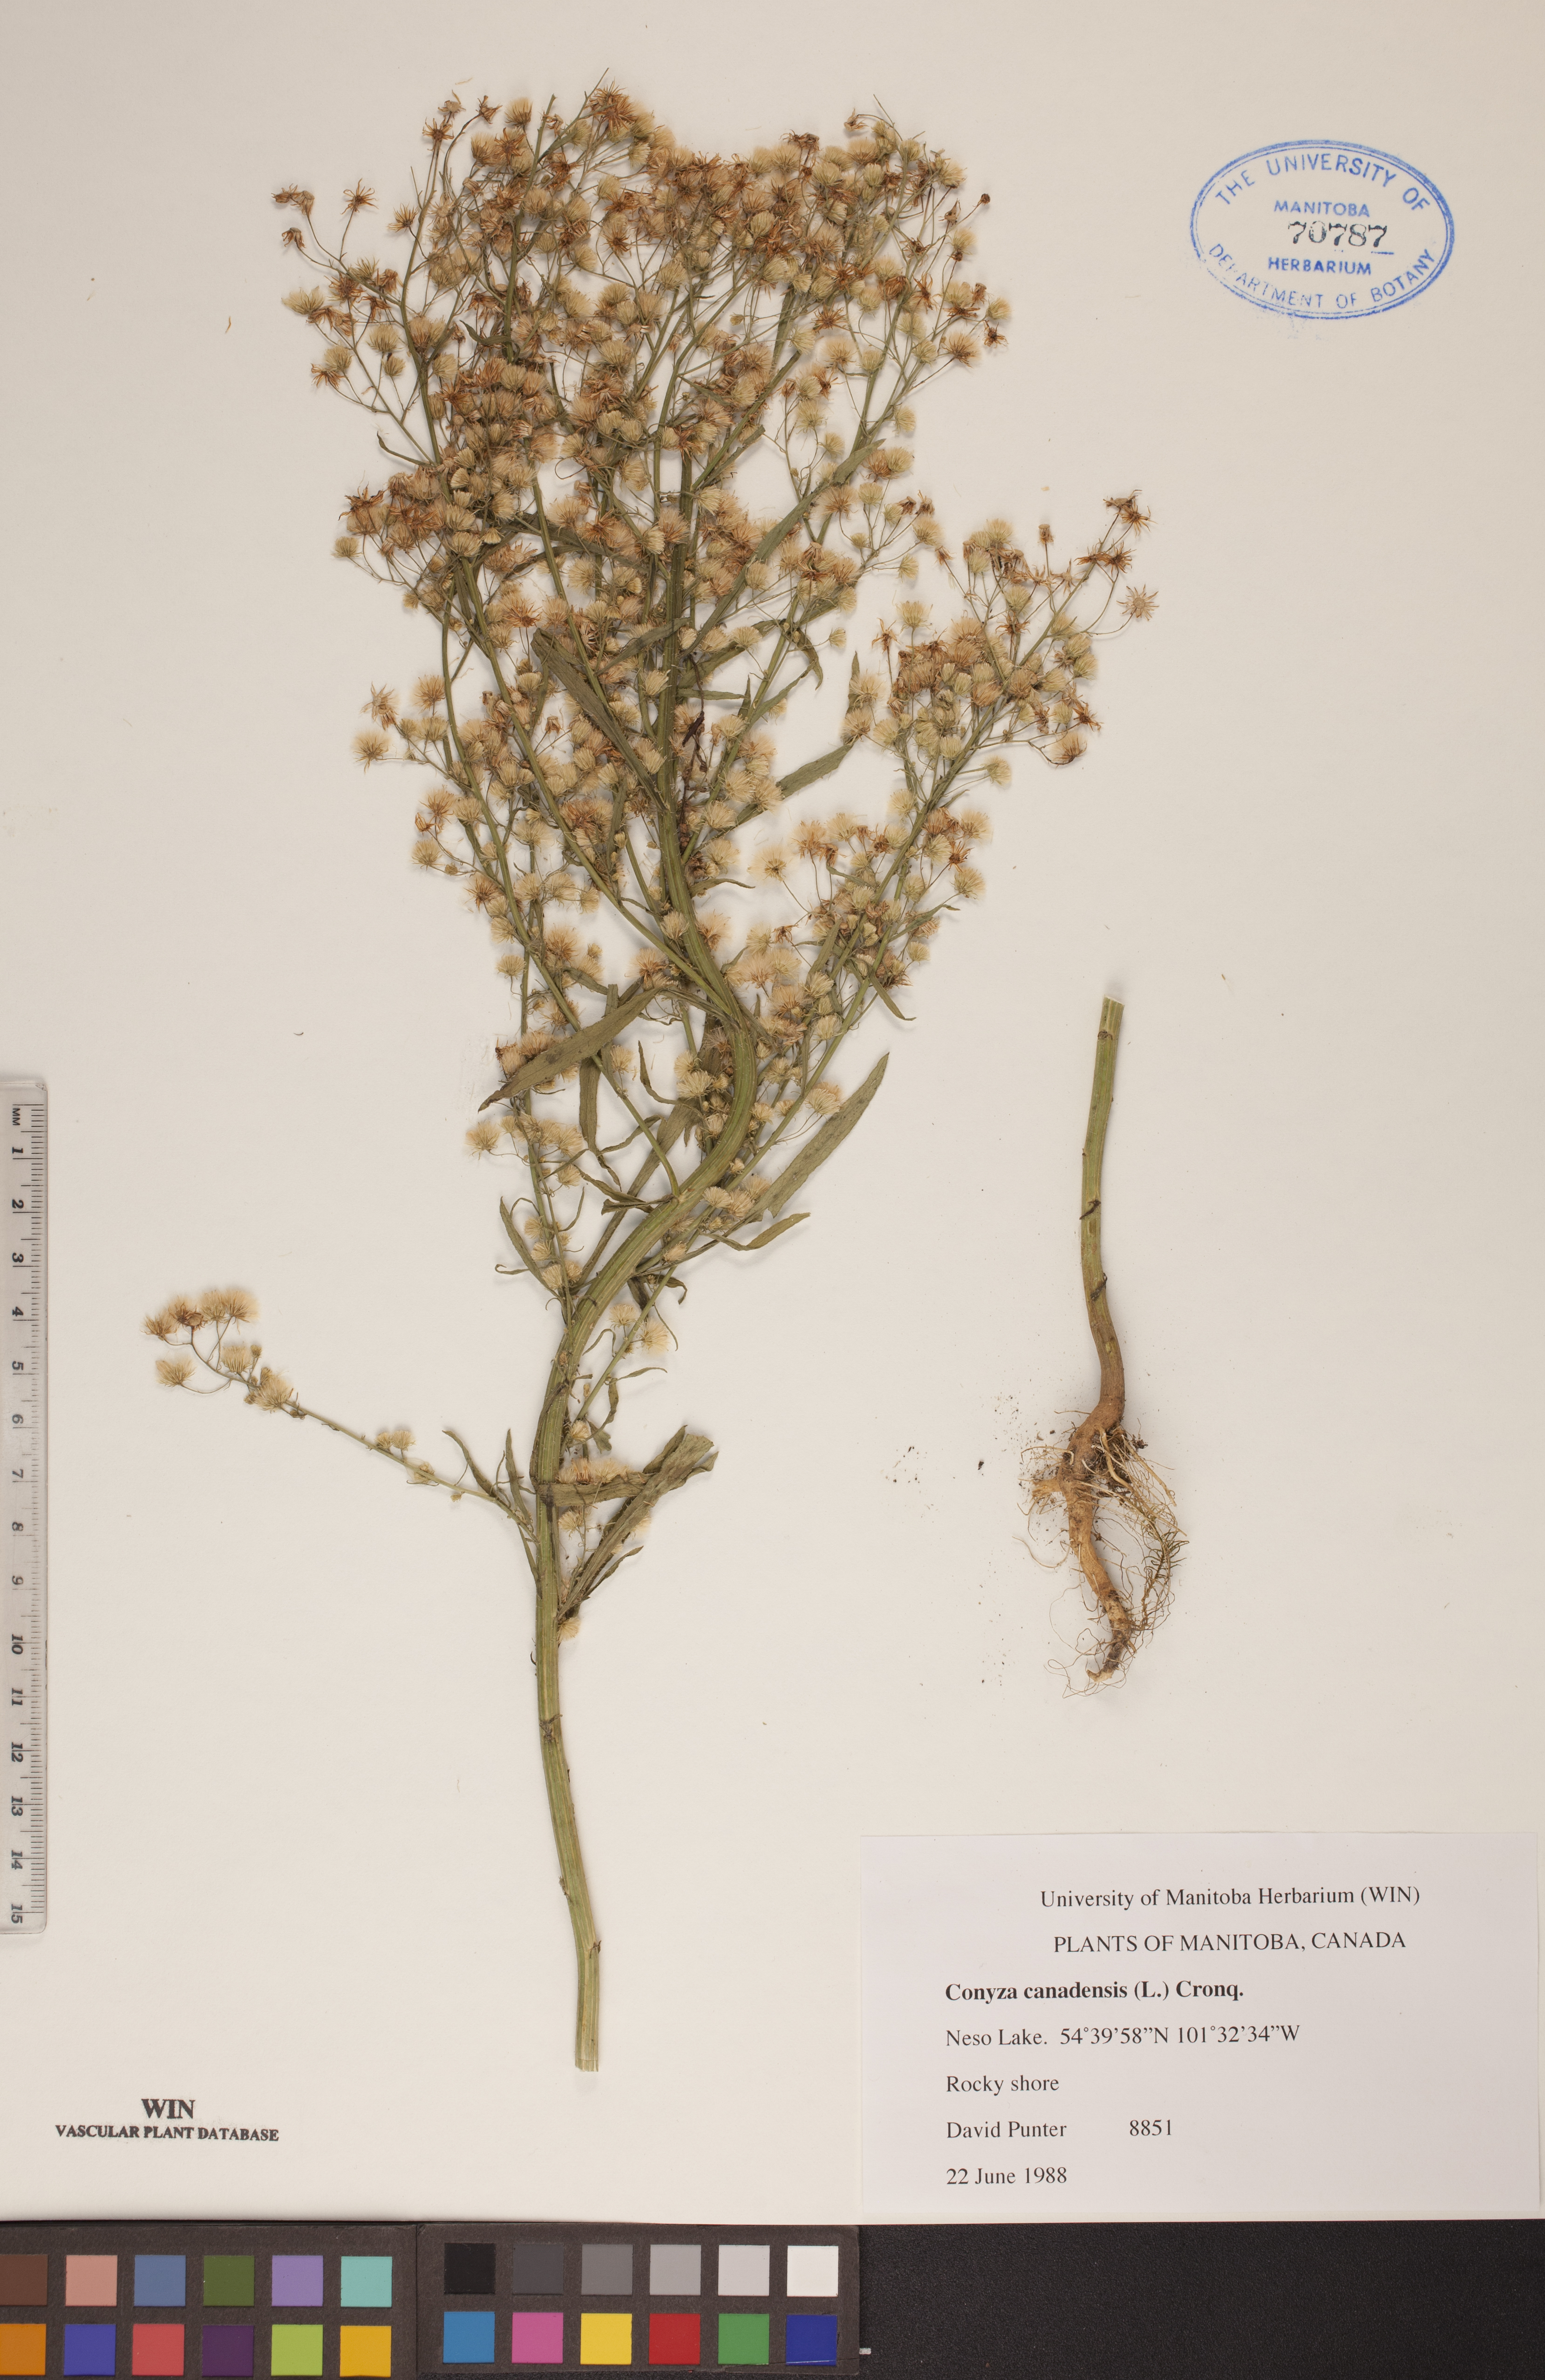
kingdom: Plantae
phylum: Tracheophyta
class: Magnoliopsida
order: Asterales
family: Asteraceae
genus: Erigeron
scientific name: Erigeron canadensis
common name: Canadian fleabane
